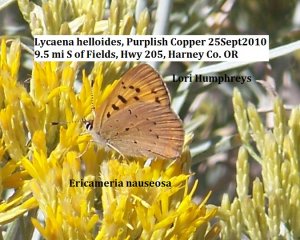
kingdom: Animalia
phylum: Arthropoda
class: Insecta
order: Lepidoptera
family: Sesiidae
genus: Sesia
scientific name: Sesia Lycaena helloides
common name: Purplish Copper
